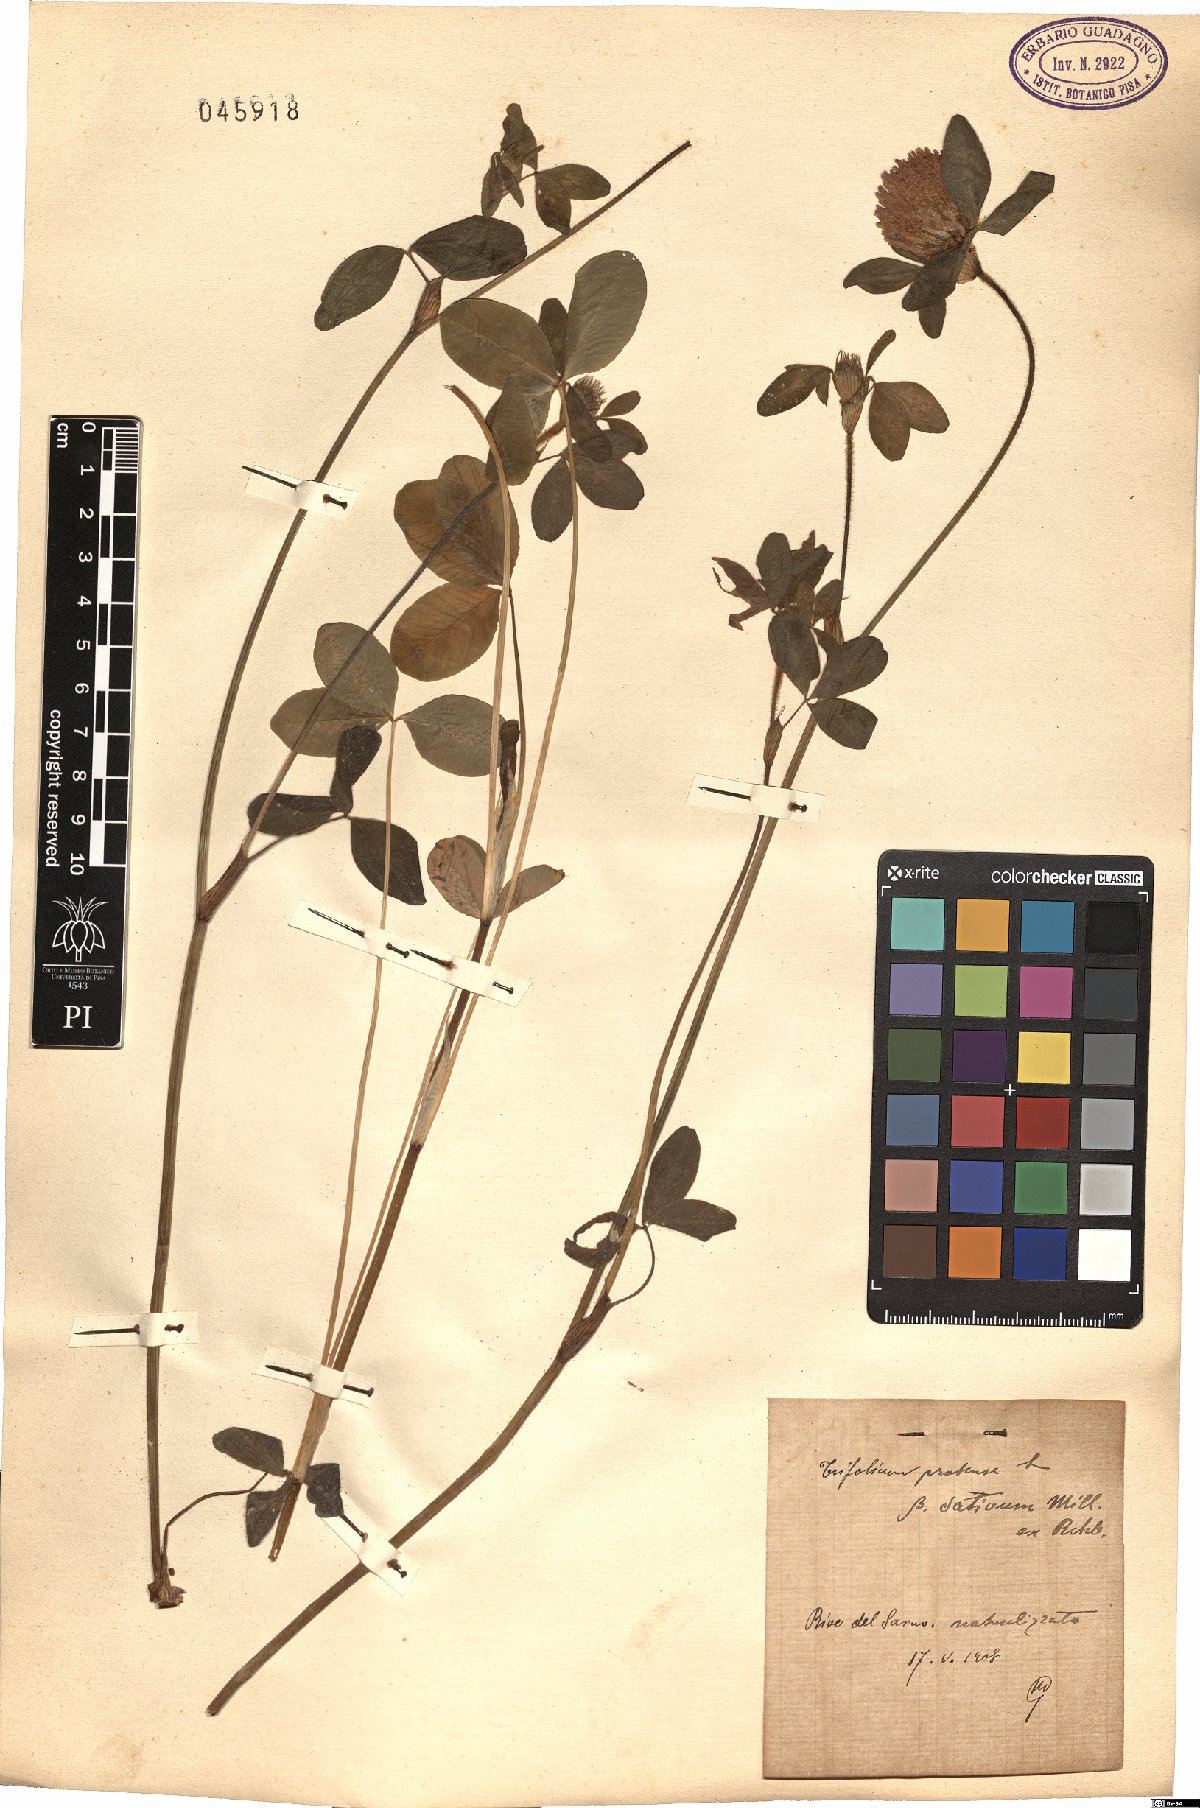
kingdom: Plantae
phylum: Tracheophyta
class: Magnoliopsida
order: Fabales
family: Fabaceae
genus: Trifolium
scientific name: Trifolium pratense
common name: Red clover
